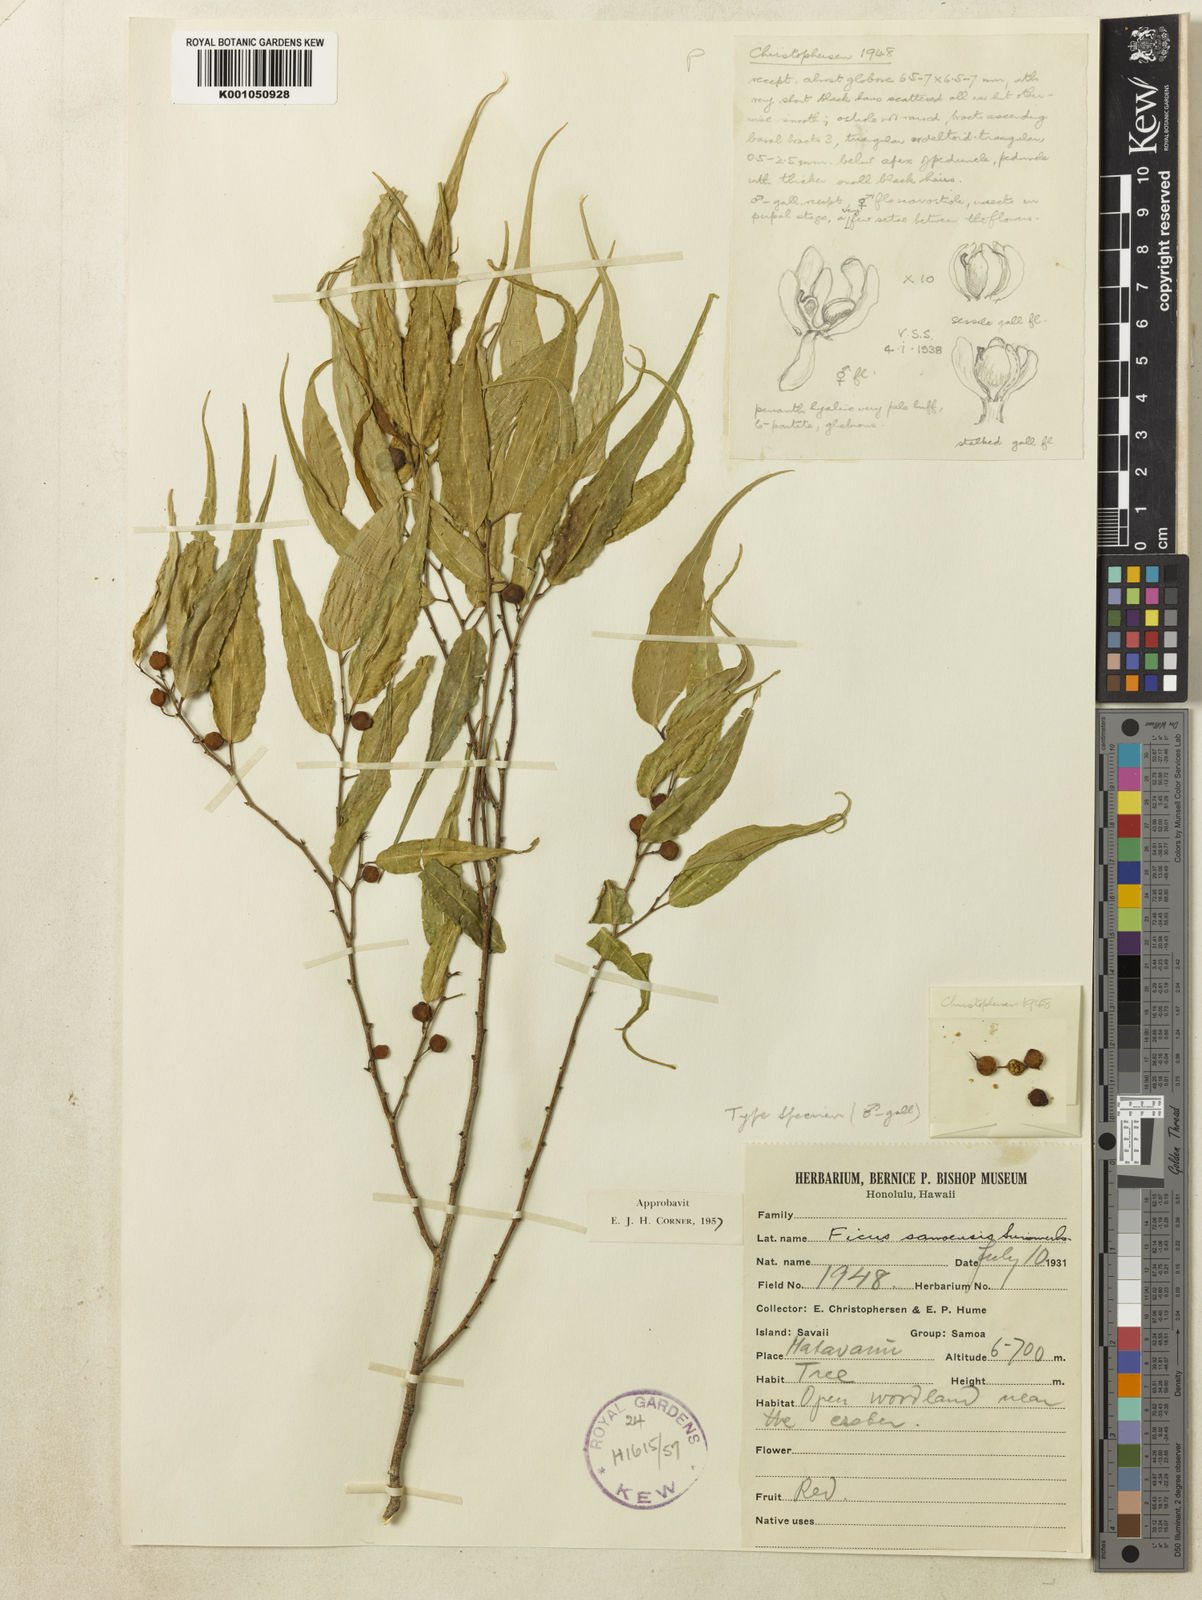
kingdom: Plantae
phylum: Tracheophyta
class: Magnoliopsida
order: Rosales
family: Moraceae
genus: Ficus
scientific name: Ficus samoensis
